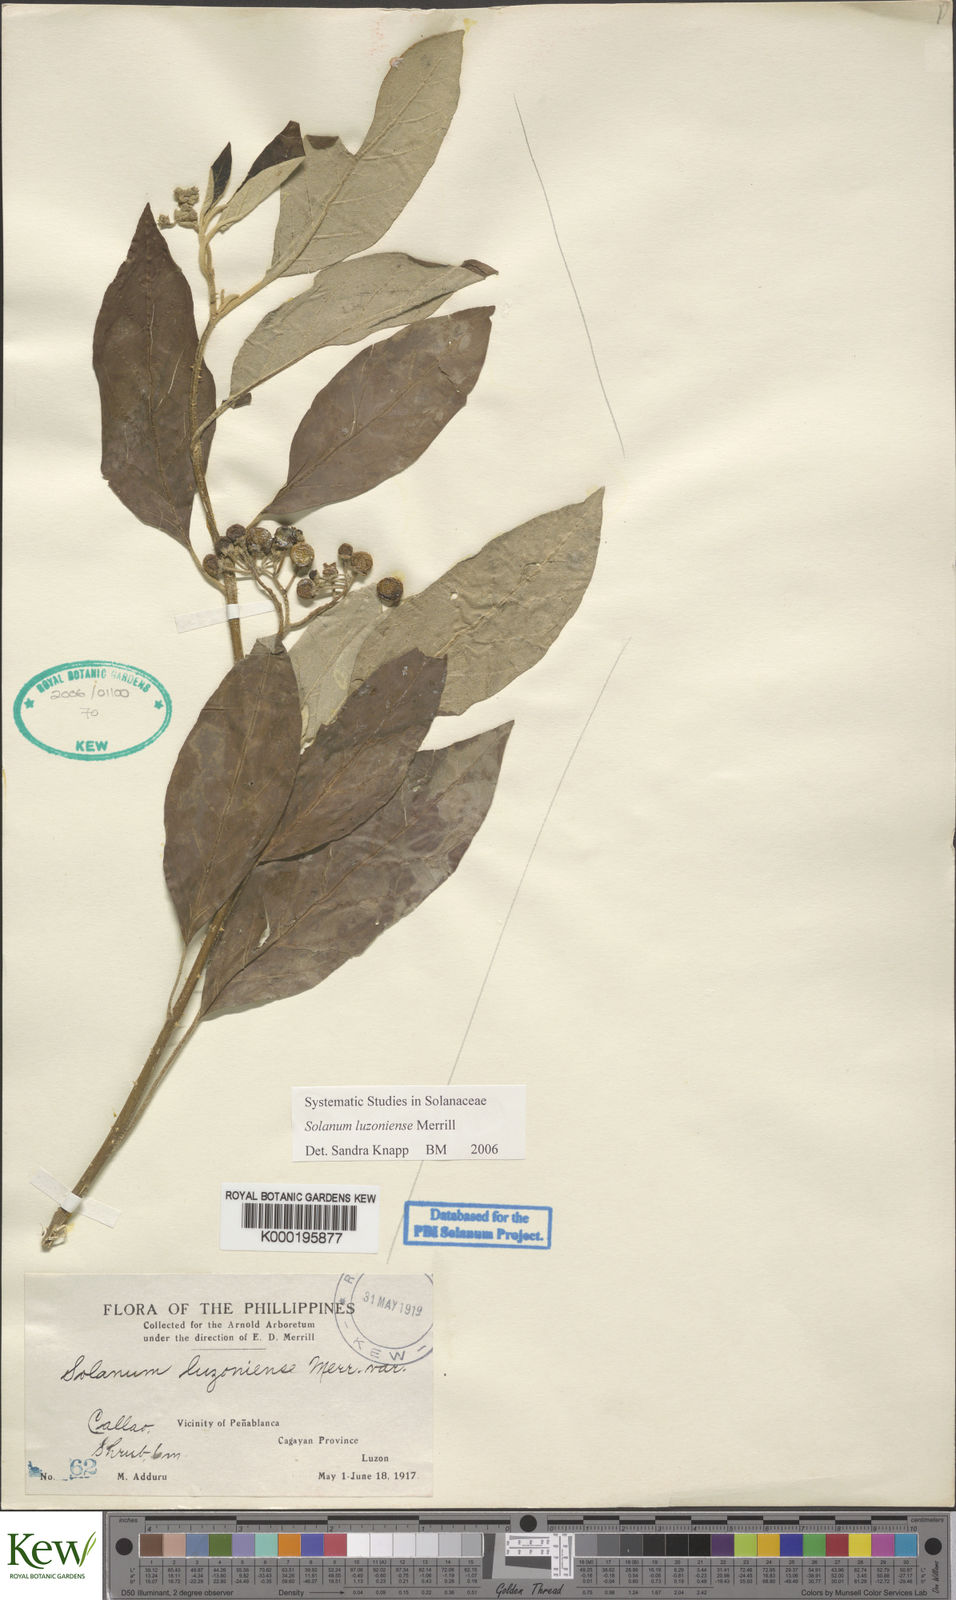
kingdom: Plantae
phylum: Tracheophyta
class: Magnoliopsida
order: Solanales
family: Solanaceae
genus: Solanum
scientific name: Solanum retrorsum
